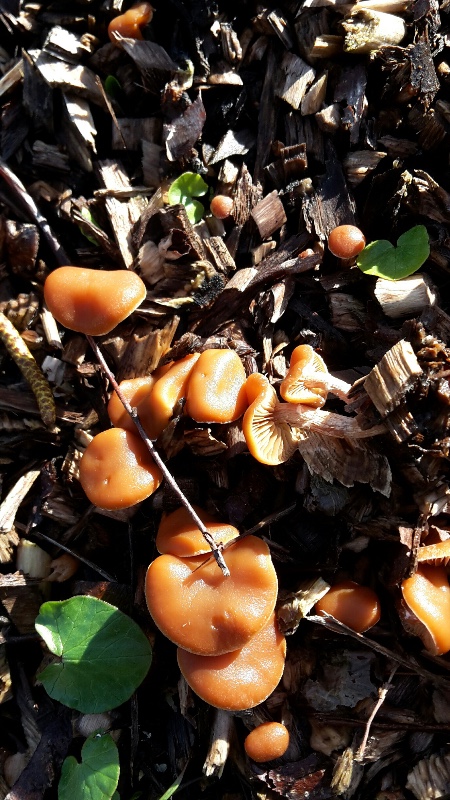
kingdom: Fungi
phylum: Basidiomycota
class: Agaricomycetes
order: Agaricales
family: Tubariaceae
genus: Tubaria
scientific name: Tubaria furfuracea
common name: kliddet fnughat
